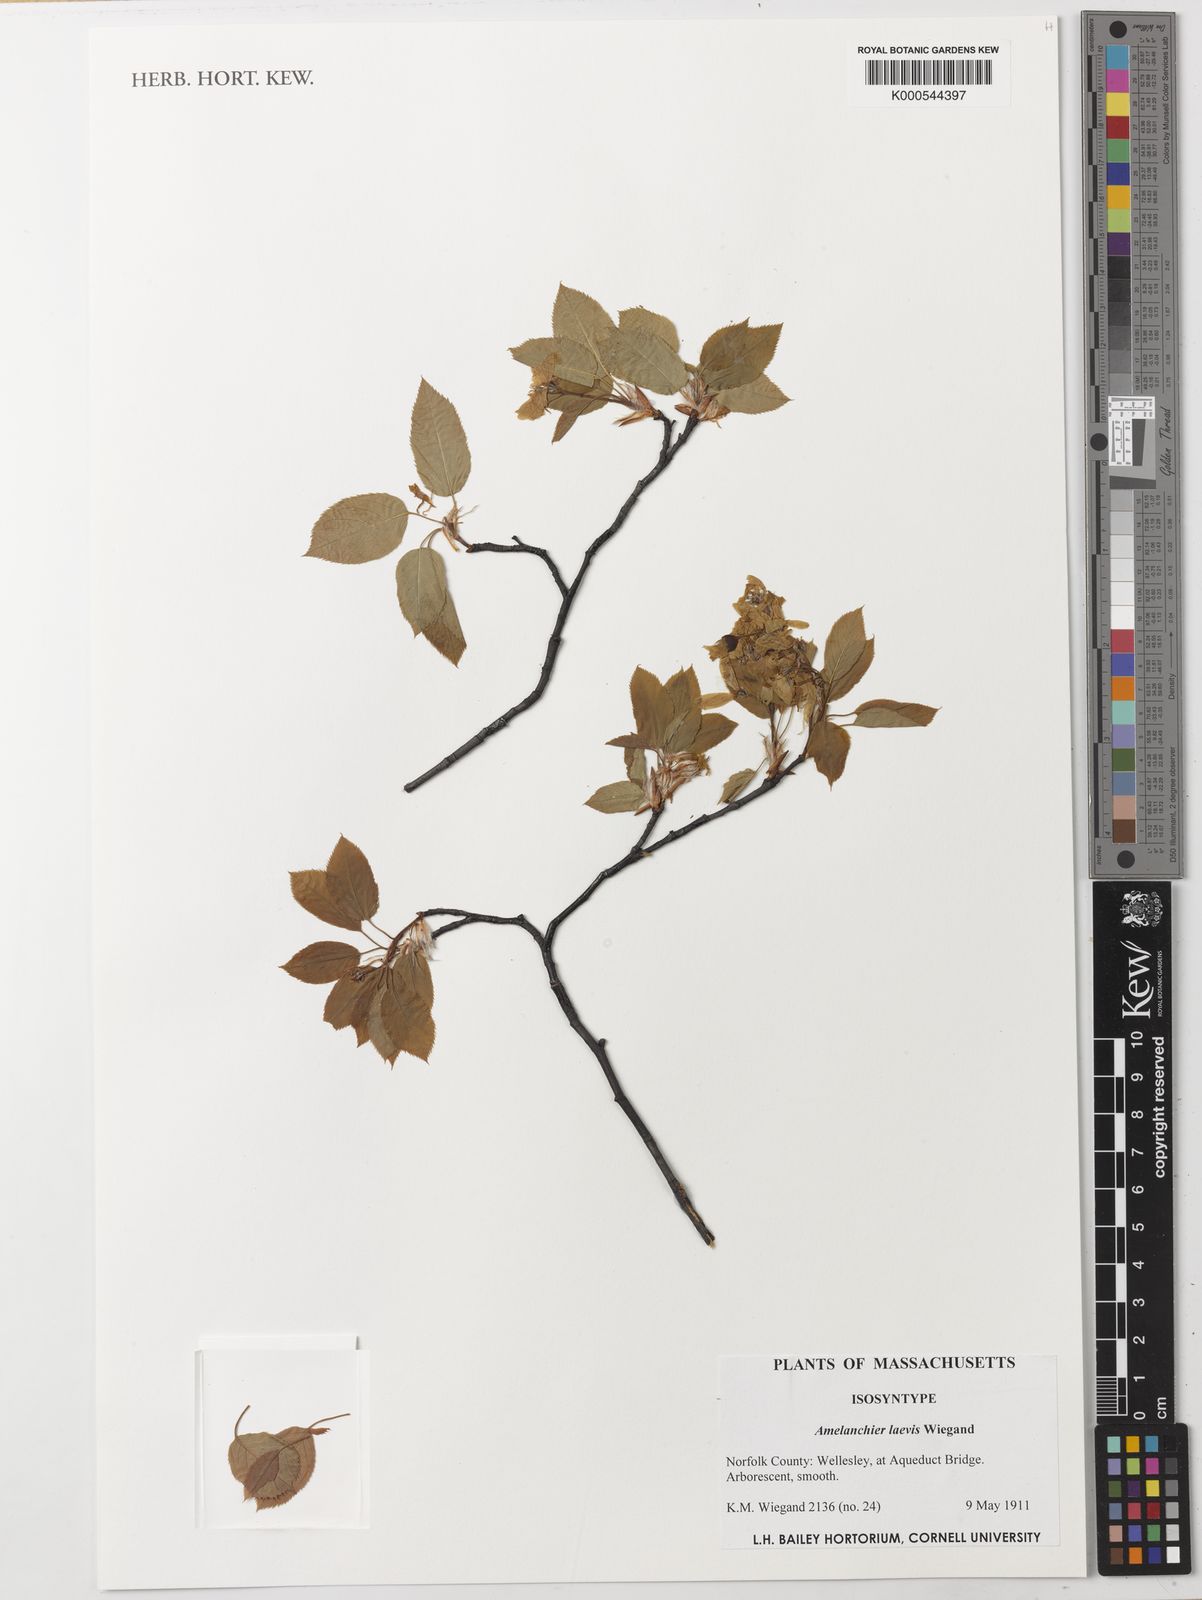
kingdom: Plantae
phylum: Tracheophyta
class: Magnoliopsida
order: Rosales
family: Rosaceae
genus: Amelanchier
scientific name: Amelanchier laevis
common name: Allegheny serviceberry
